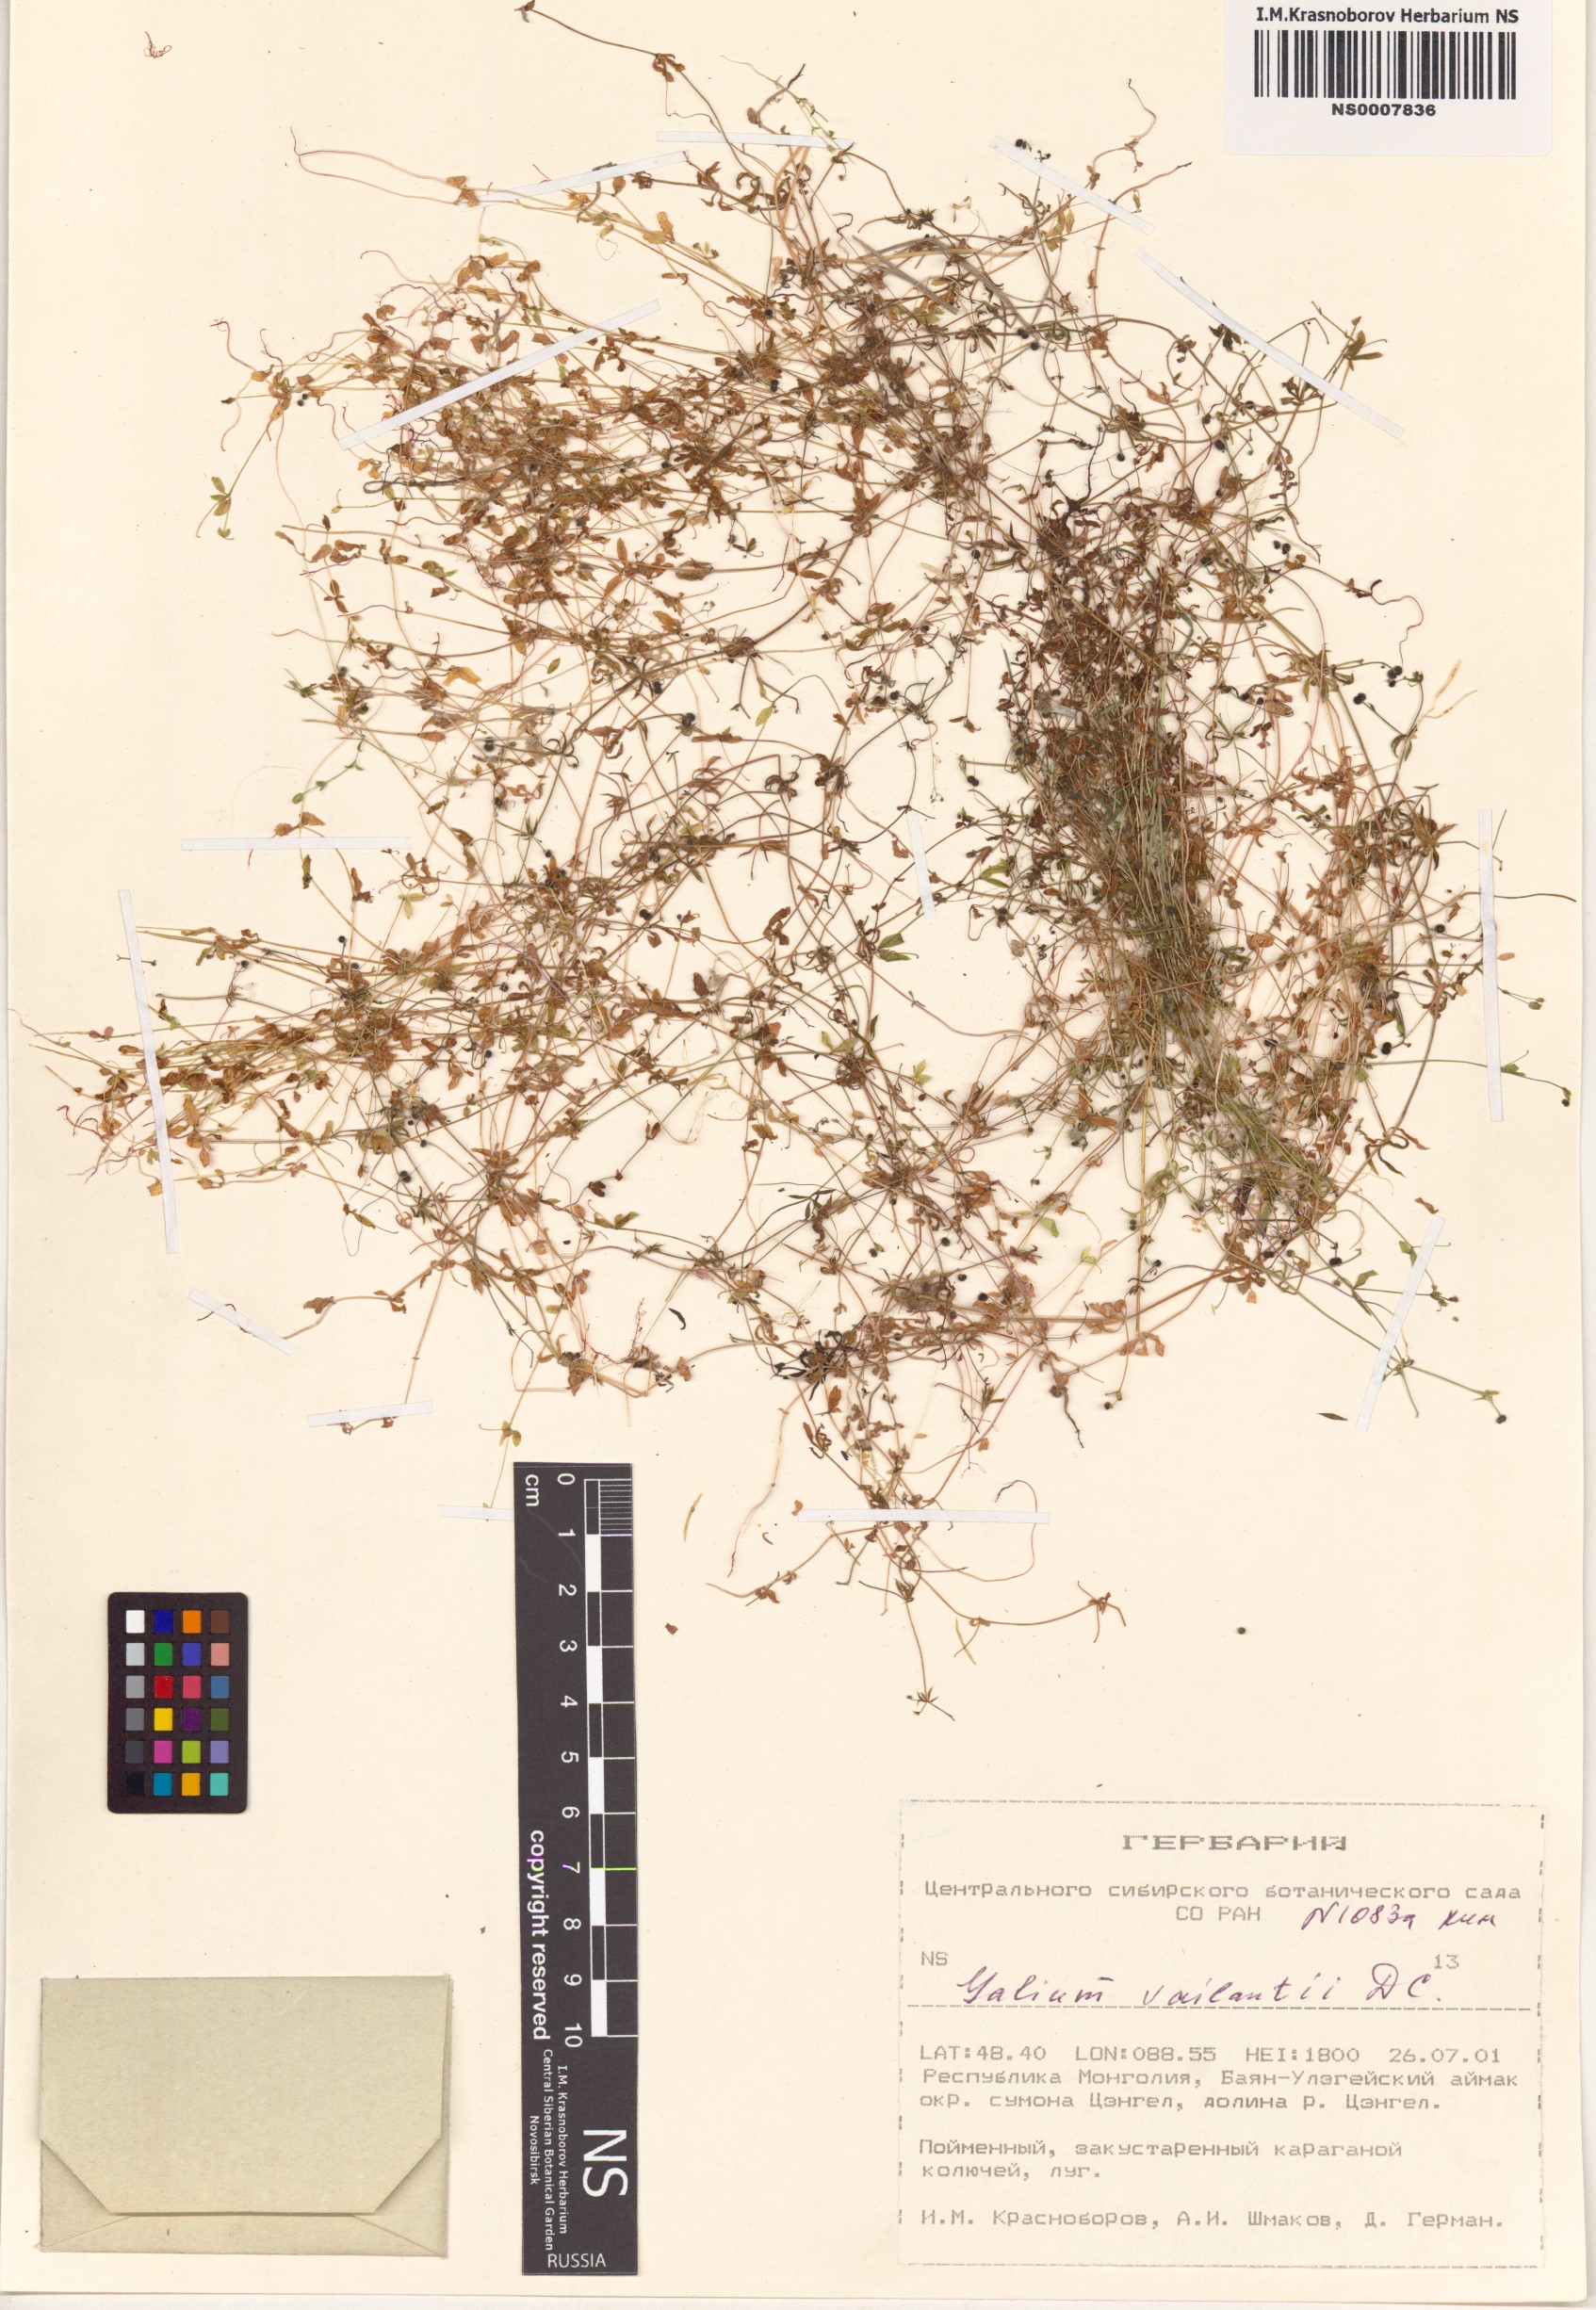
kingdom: Plantae
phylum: Tracheophyta
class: Magnoliopsida
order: Gentianales
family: Rubiaceae
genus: Galium
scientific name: Galium spurium
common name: False cleavers
